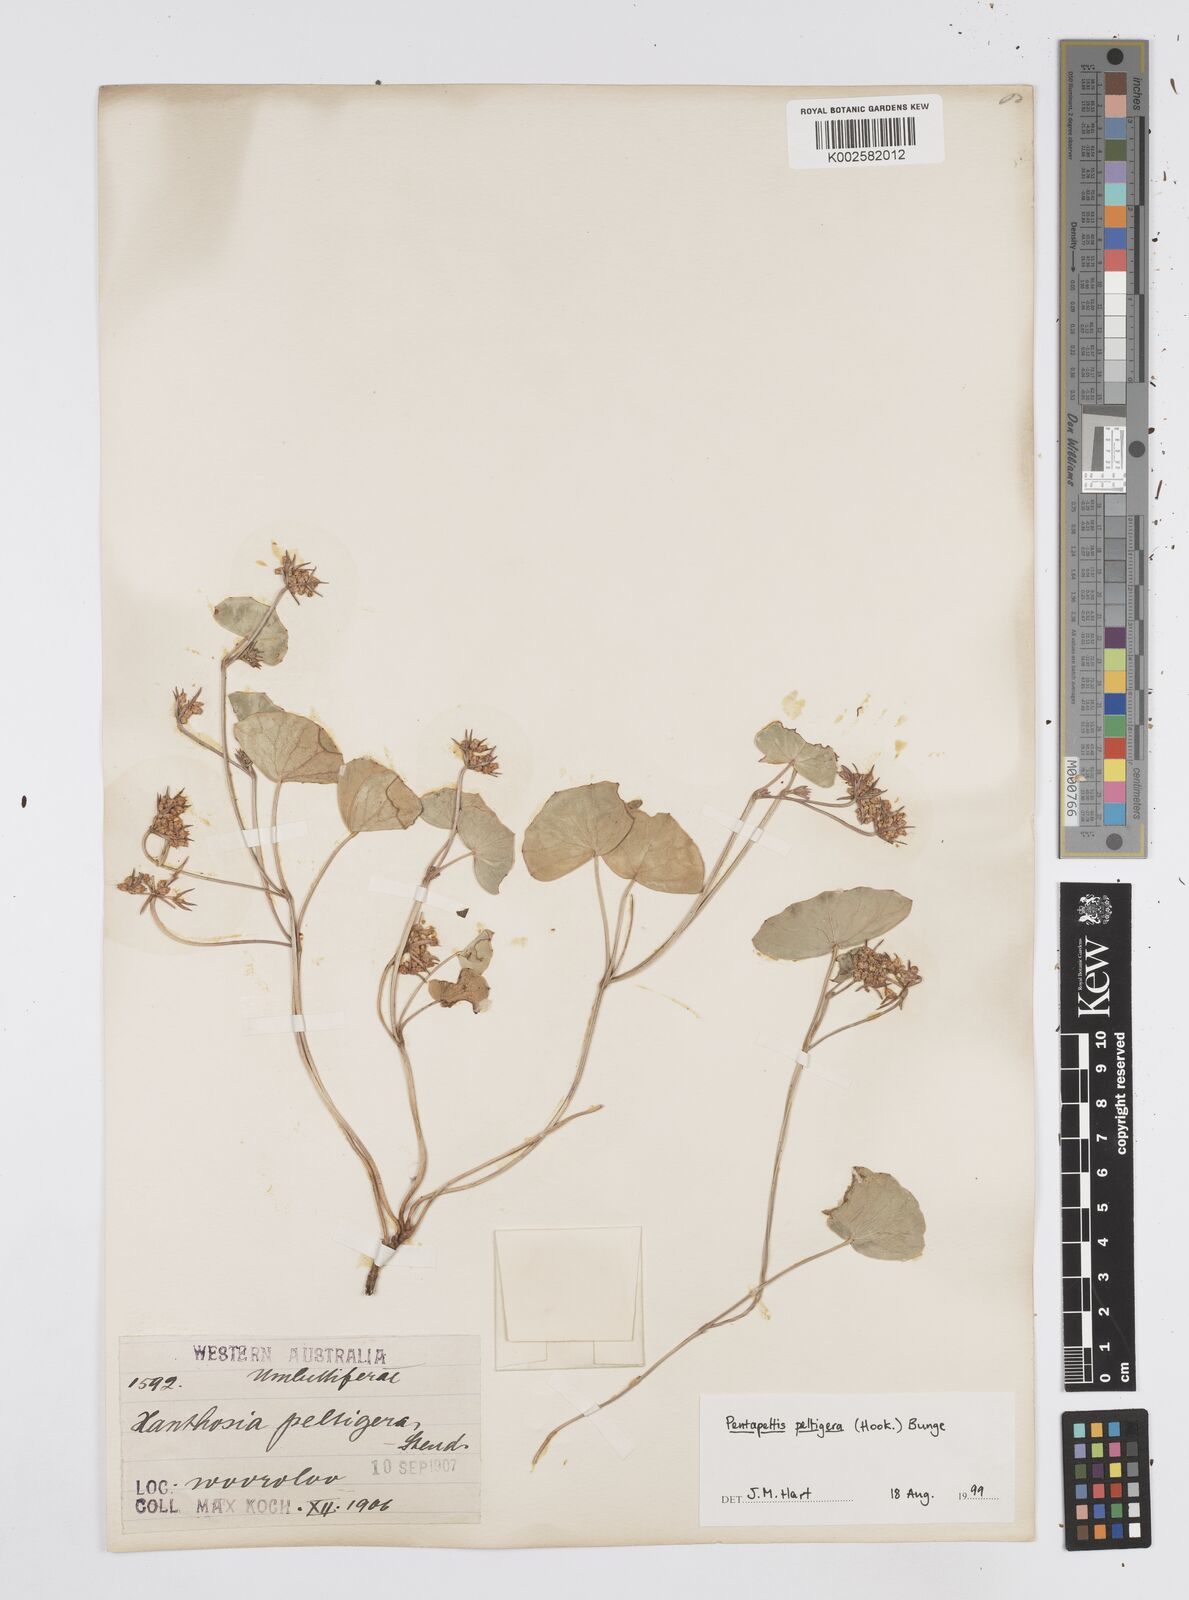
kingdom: Plantae
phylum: Tracheophyta
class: Magnoliopsida
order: Apiales
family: Apiaceae
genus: Pentapeltis
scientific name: Pentapeltis peltigera
